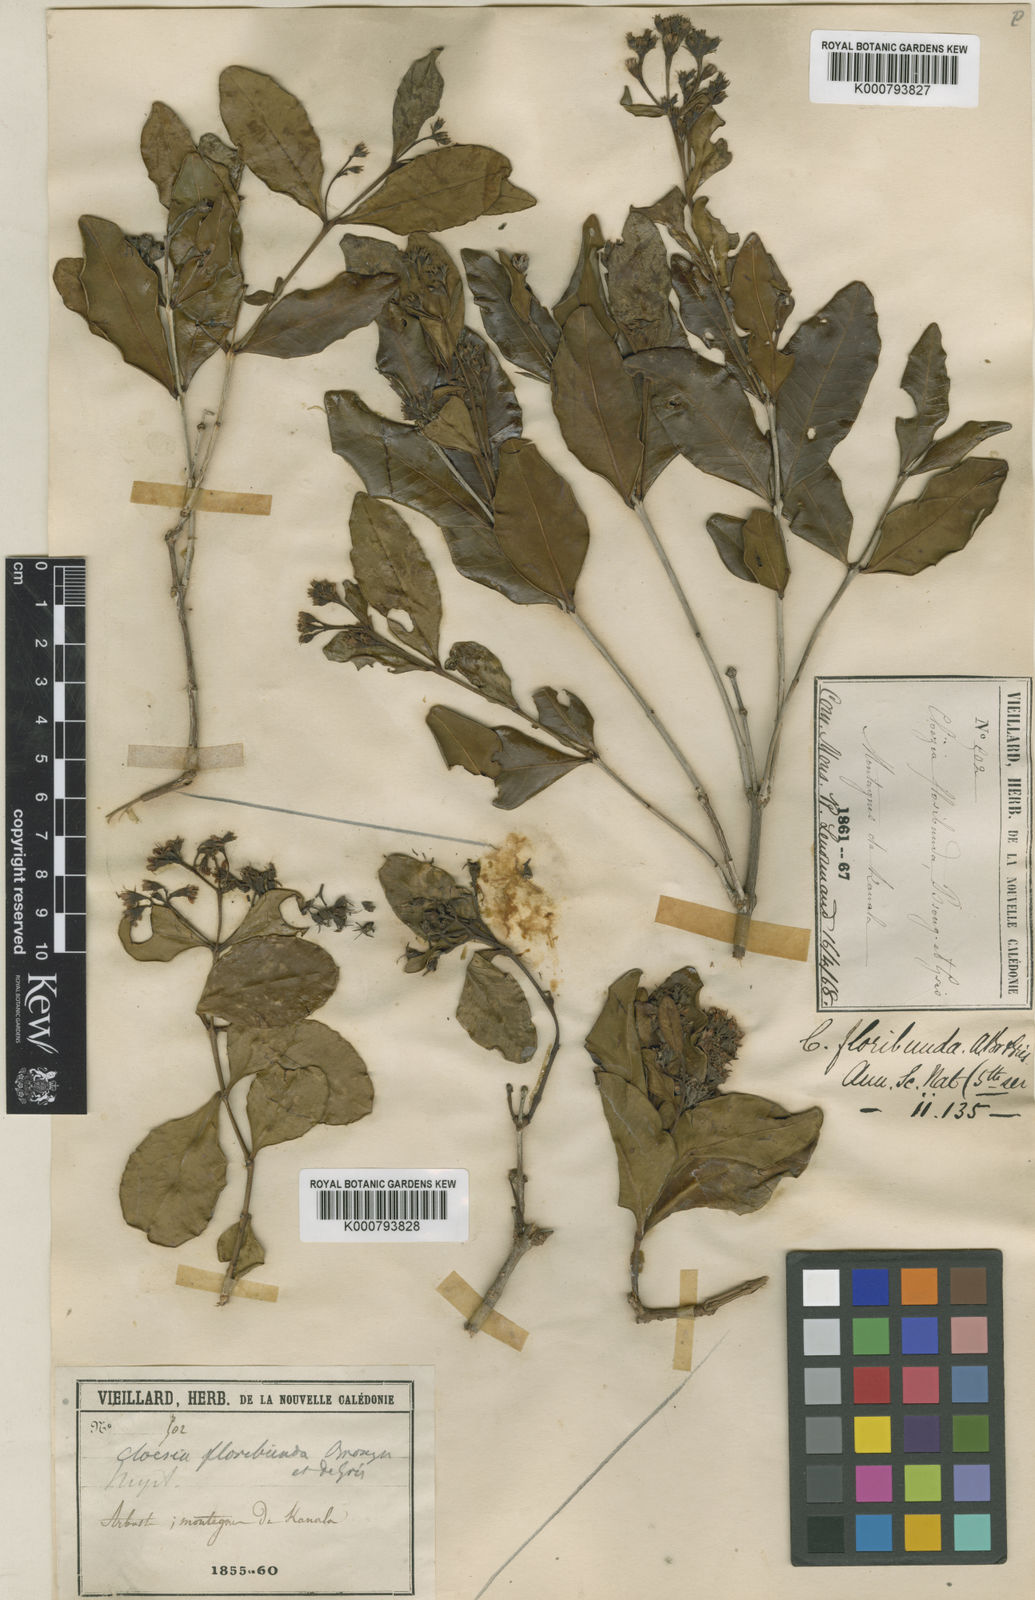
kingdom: Plantae
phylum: Tracheophyta
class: Magnoliopsida
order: Myrtales
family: Myrtaceae
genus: Cloezia
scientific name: Cloezia floribunda
